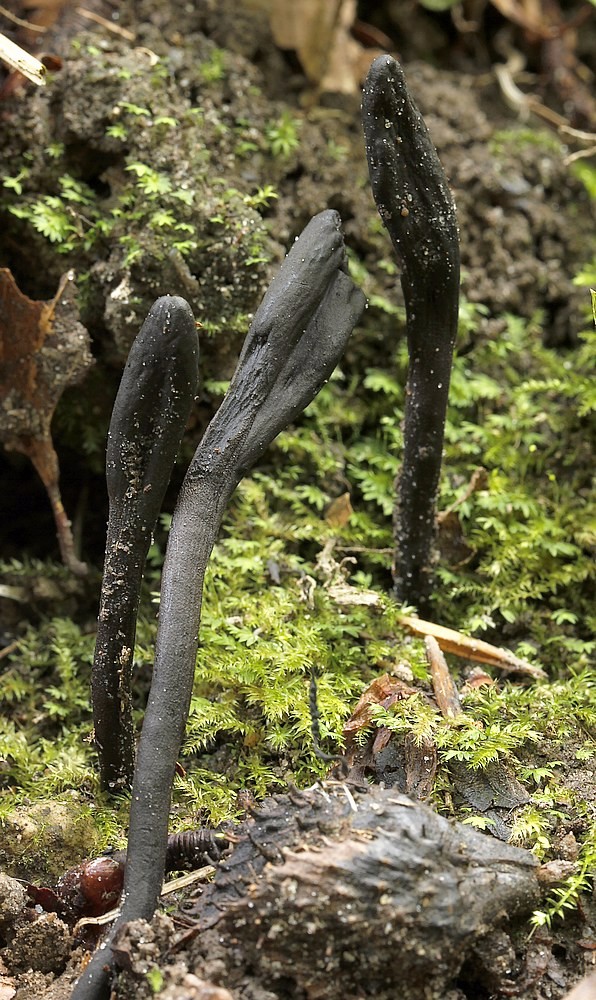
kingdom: Fungi
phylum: Ascomycota
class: Geoglossomycetes
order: Geoglossales
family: Geoglossaceae
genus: Geoglossum
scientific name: Geoglossum cookeianum
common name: bred jordtunge
